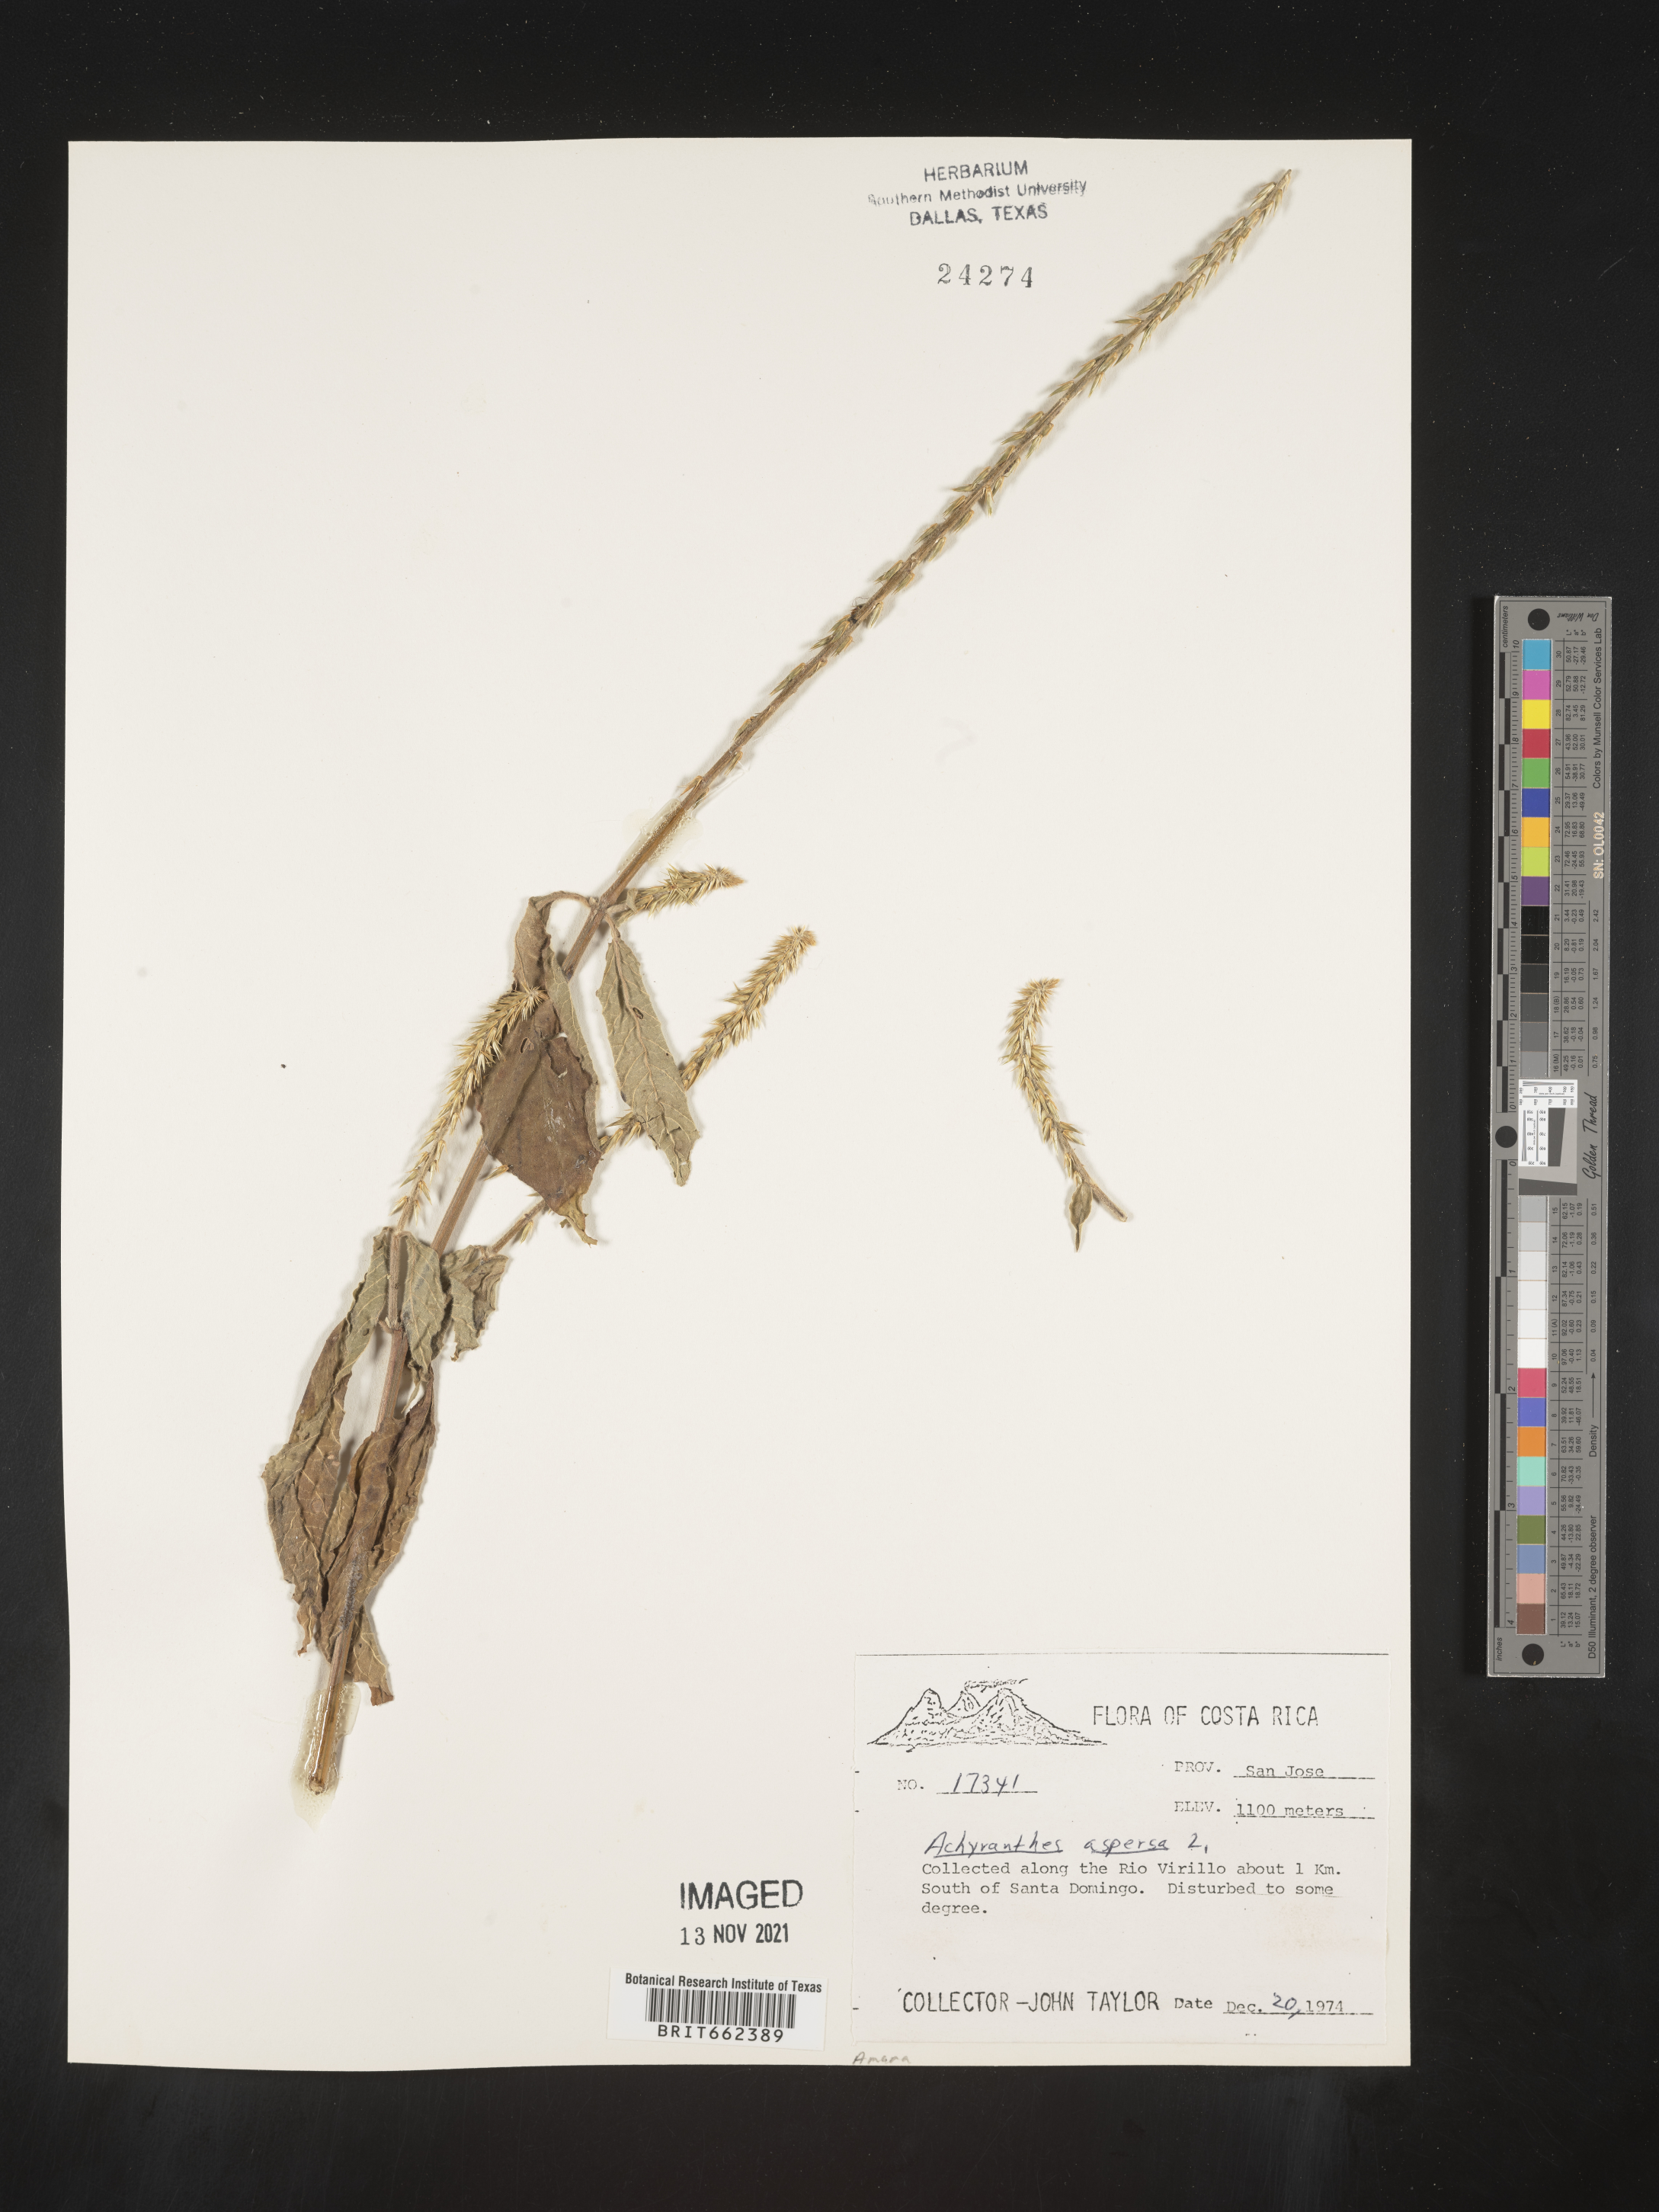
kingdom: Plantae
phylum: Tracheophyta
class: Magnoliopsida
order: Caryophyllales
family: Amaranthaceae
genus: Achyranthes
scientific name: Achyranthes
